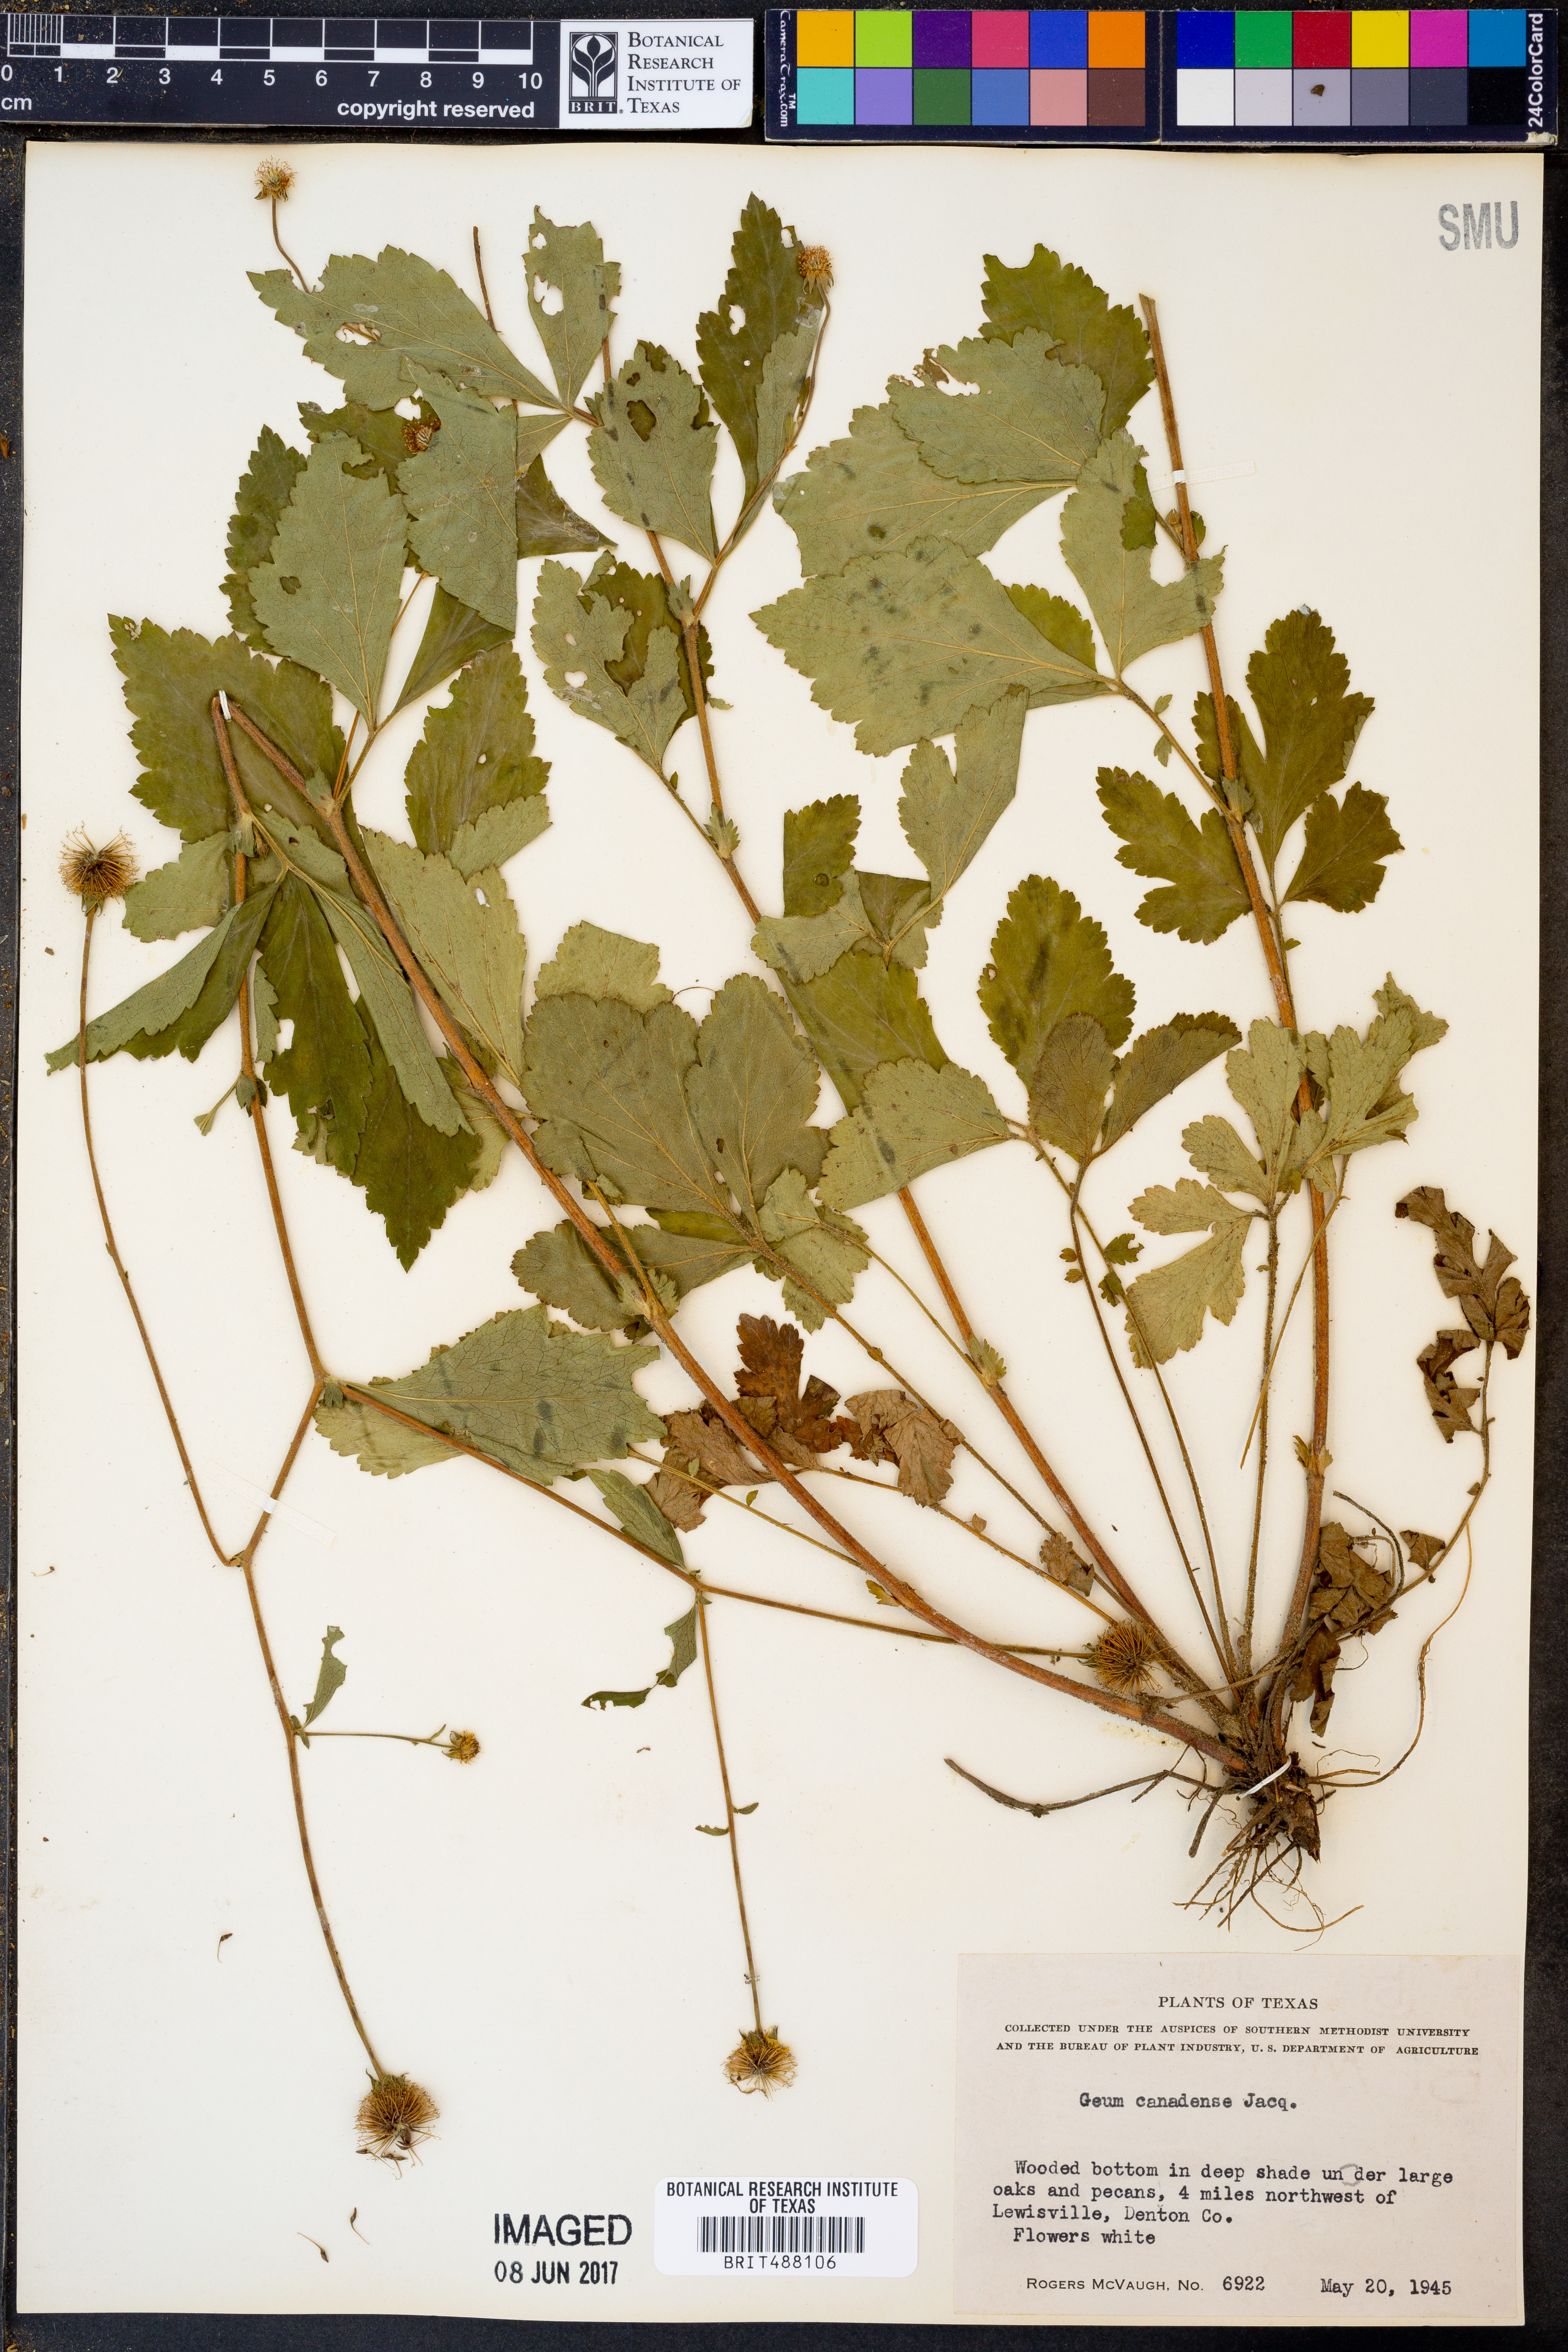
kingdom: Plantae
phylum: Tracheophyta
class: Magnoliopsida
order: Rosales
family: Rosaceae
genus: Geum
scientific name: Geum canadense
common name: White avens
